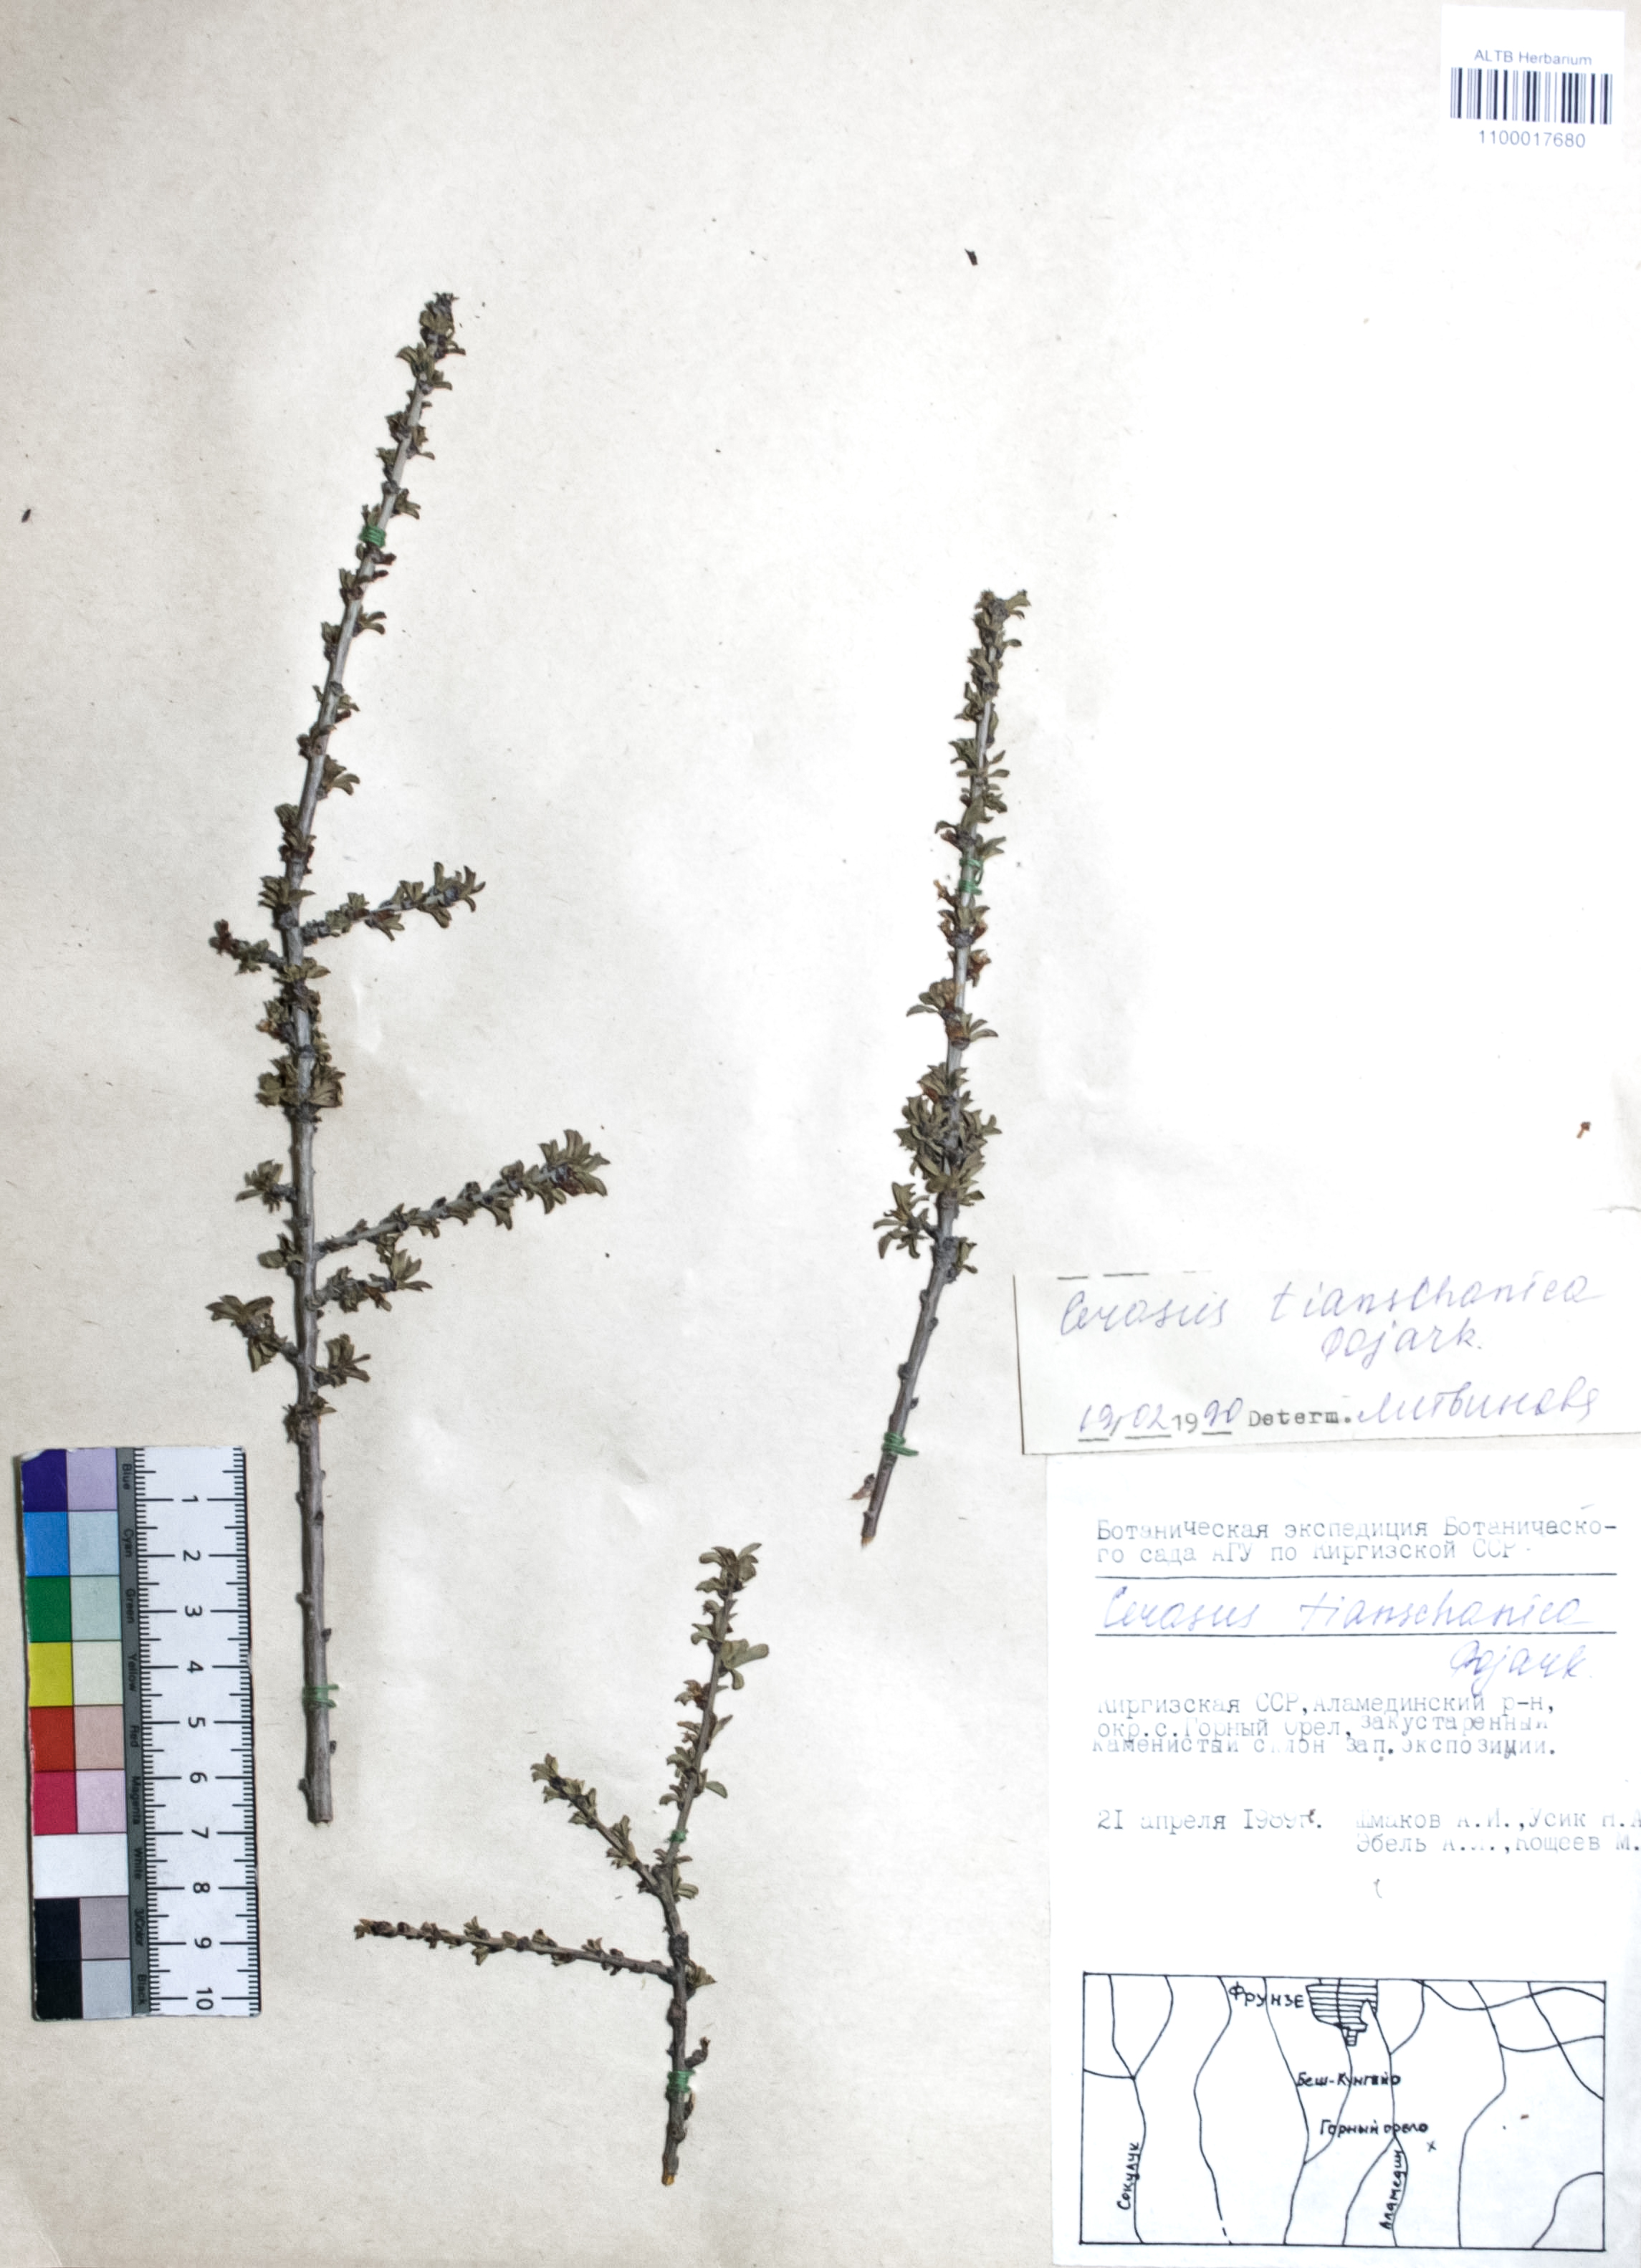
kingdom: Plantae
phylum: Tracheophyta
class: Magnoliopsida
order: Rosales
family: Rosaceae
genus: Prunus
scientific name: Prunus griffithii
